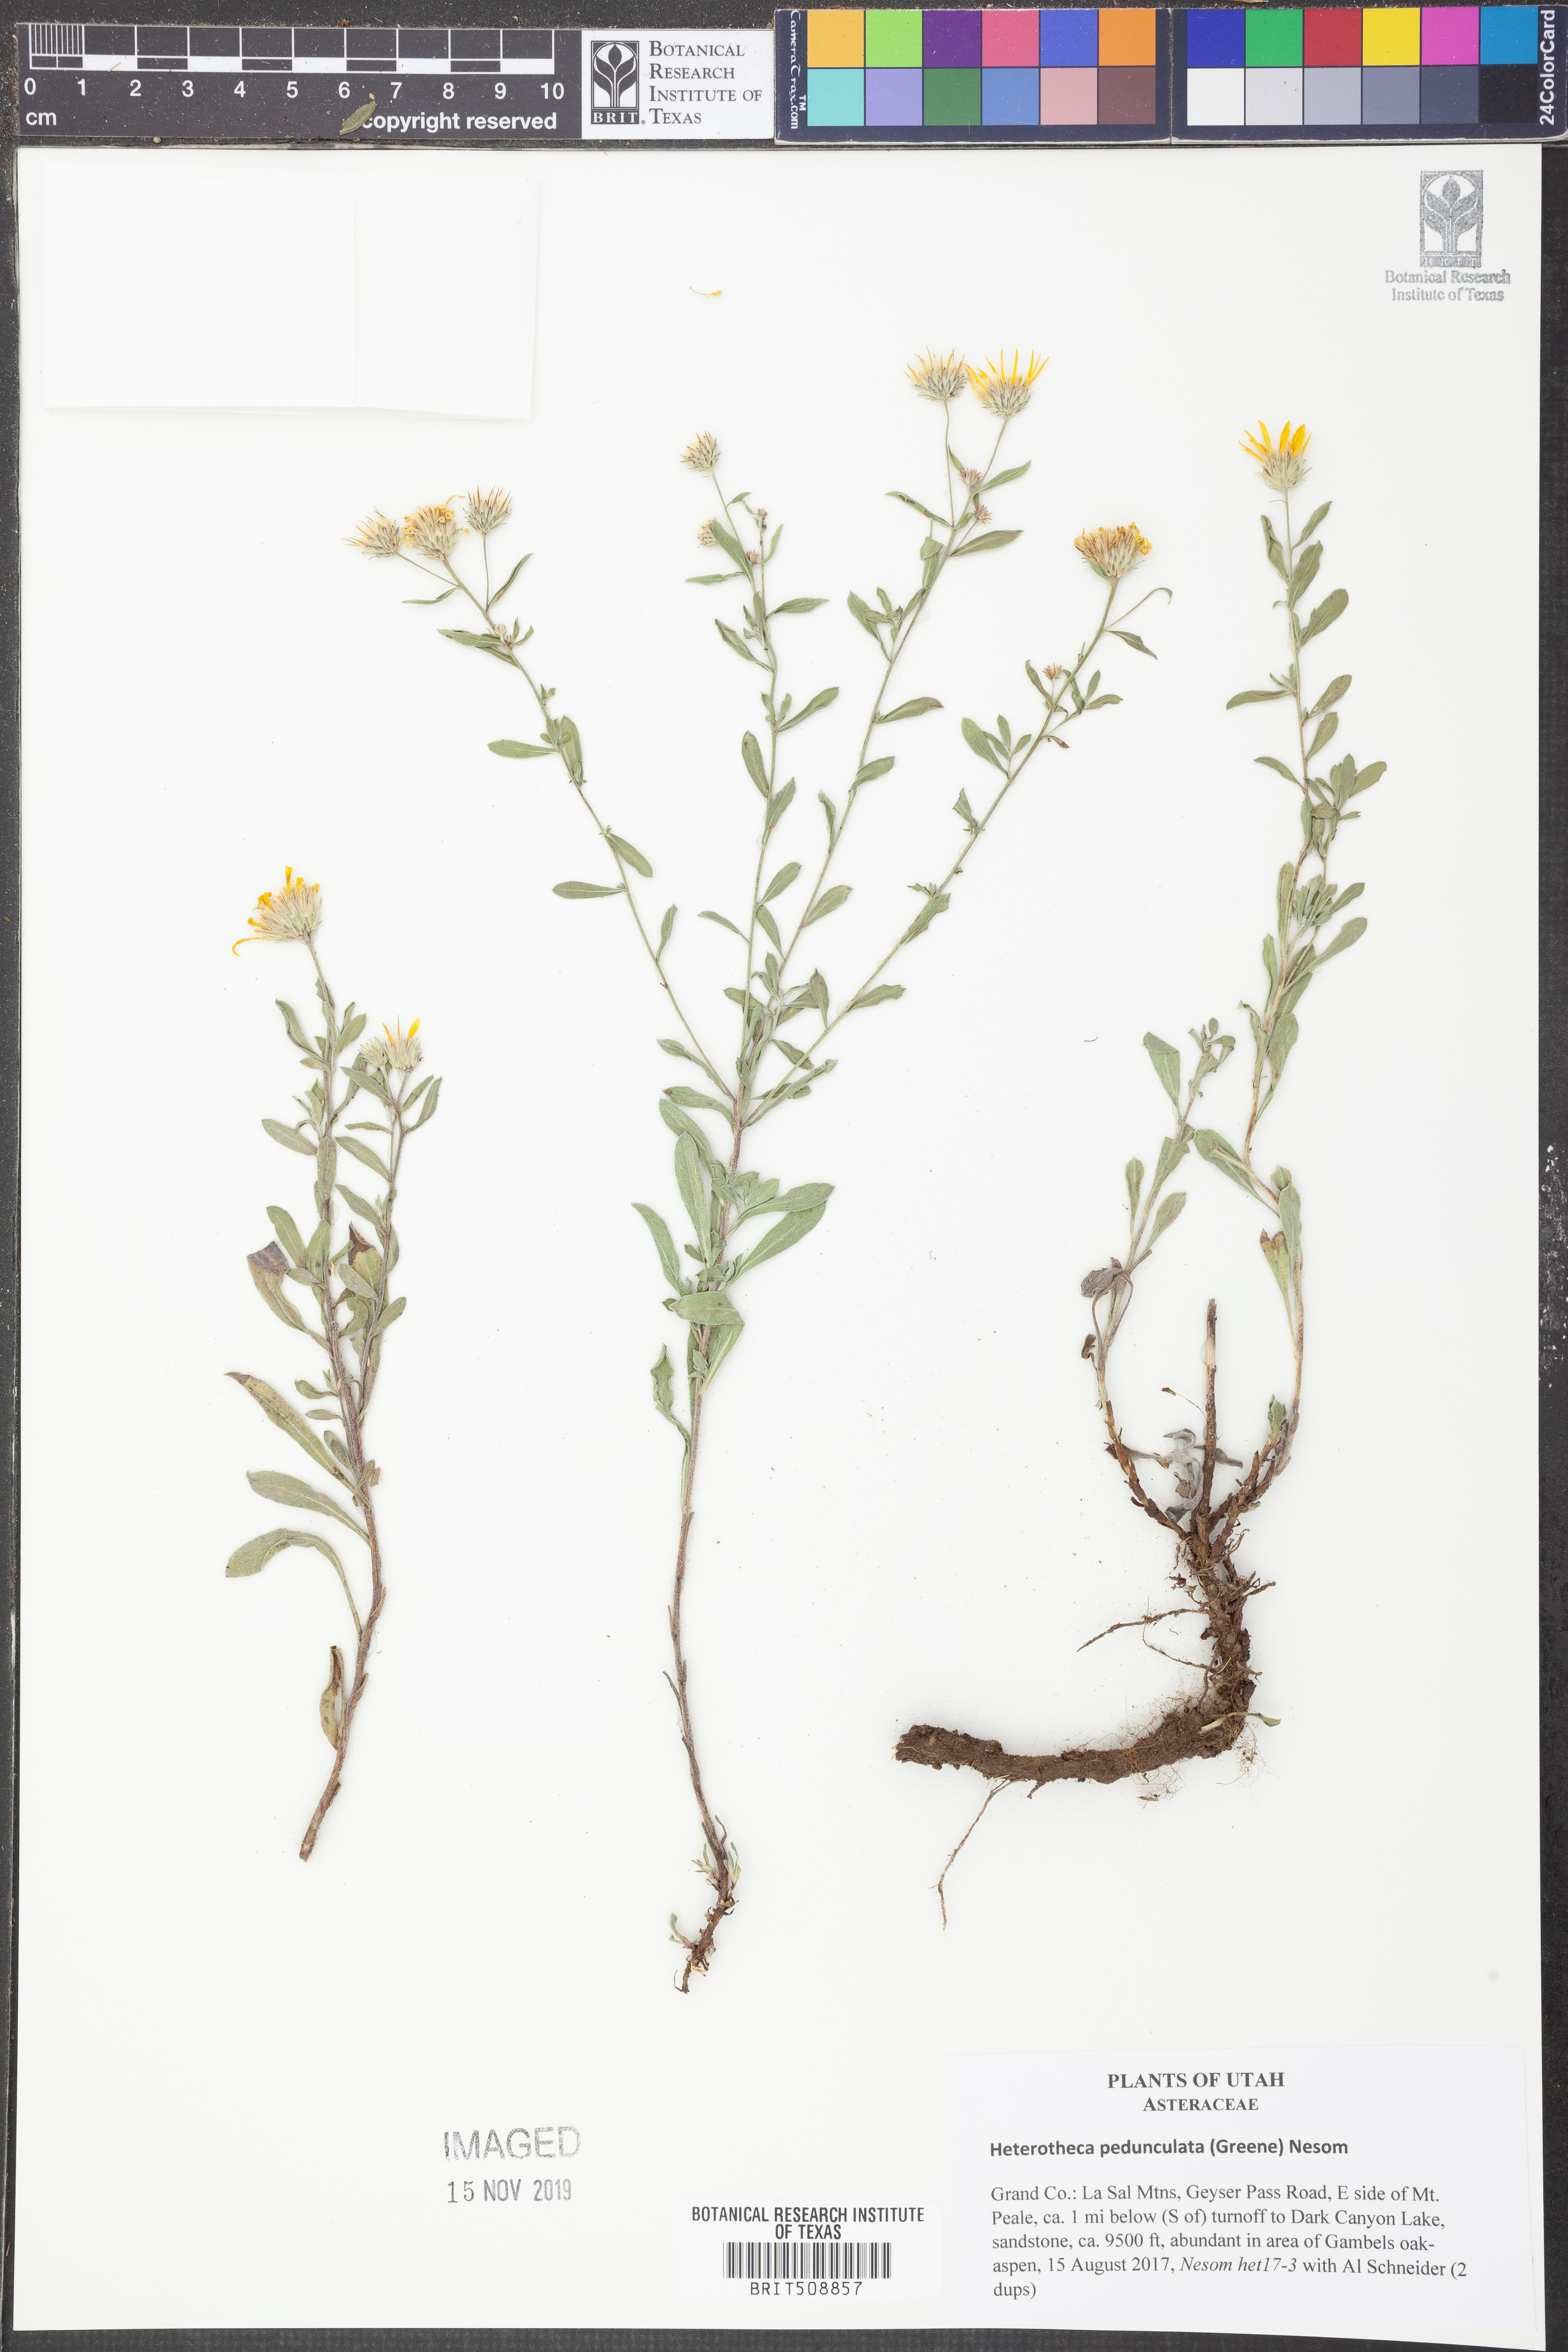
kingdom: Plantae
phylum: Tracheophyta
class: Magnoliopsida
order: Asterales
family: Asteraceae
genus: Heterotheca
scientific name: Heterotheca pedunculata
